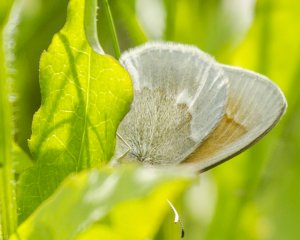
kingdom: Animalia
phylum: Arthropoda
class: Insecta
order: Lepidoptera
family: Nymphalidae
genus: Coenonympha
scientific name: Coenonympha tullia
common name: Large Heath
